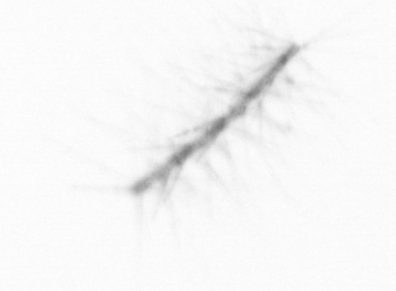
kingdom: Chromista
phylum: Ochrophyta
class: Bacillariophyceae
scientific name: Bacillariophyceae
